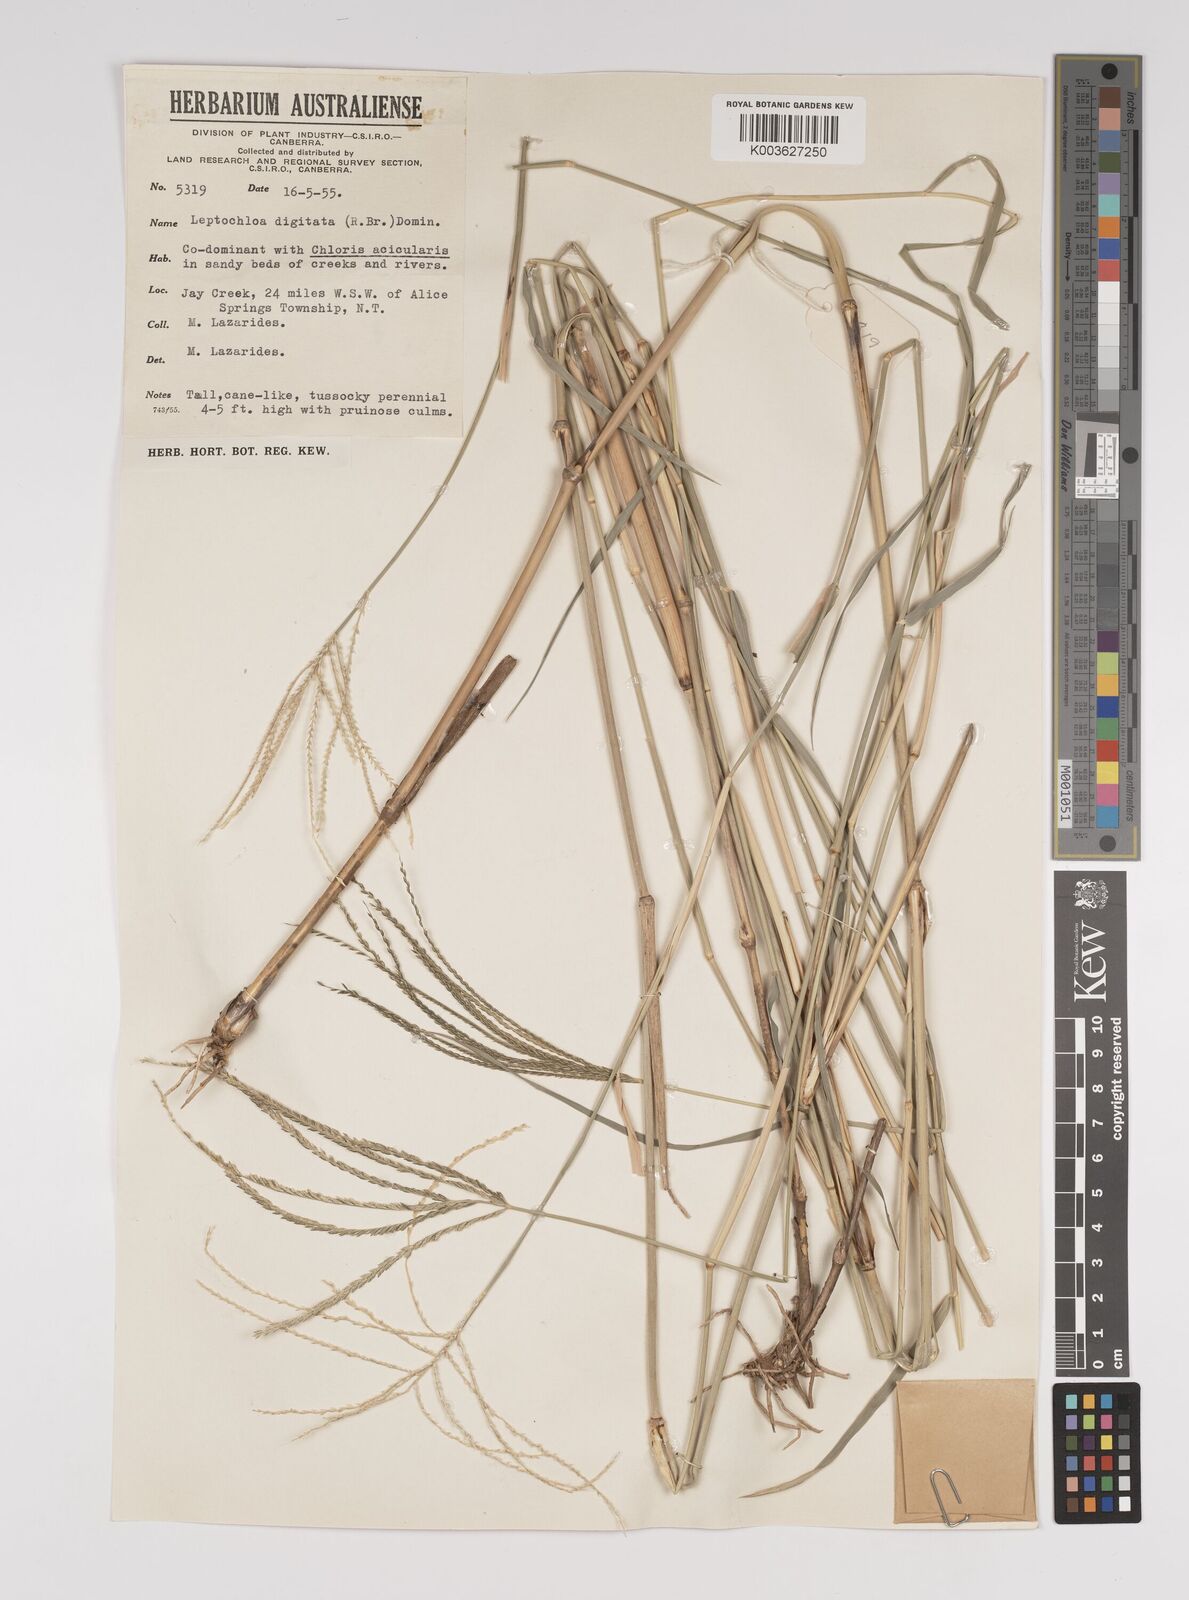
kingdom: Plantae
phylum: Tracheophyta
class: Liliopsida
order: Poales
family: Poaceae
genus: Leptochloa
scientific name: Leptochloa digitata
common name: Finger sprangletop
